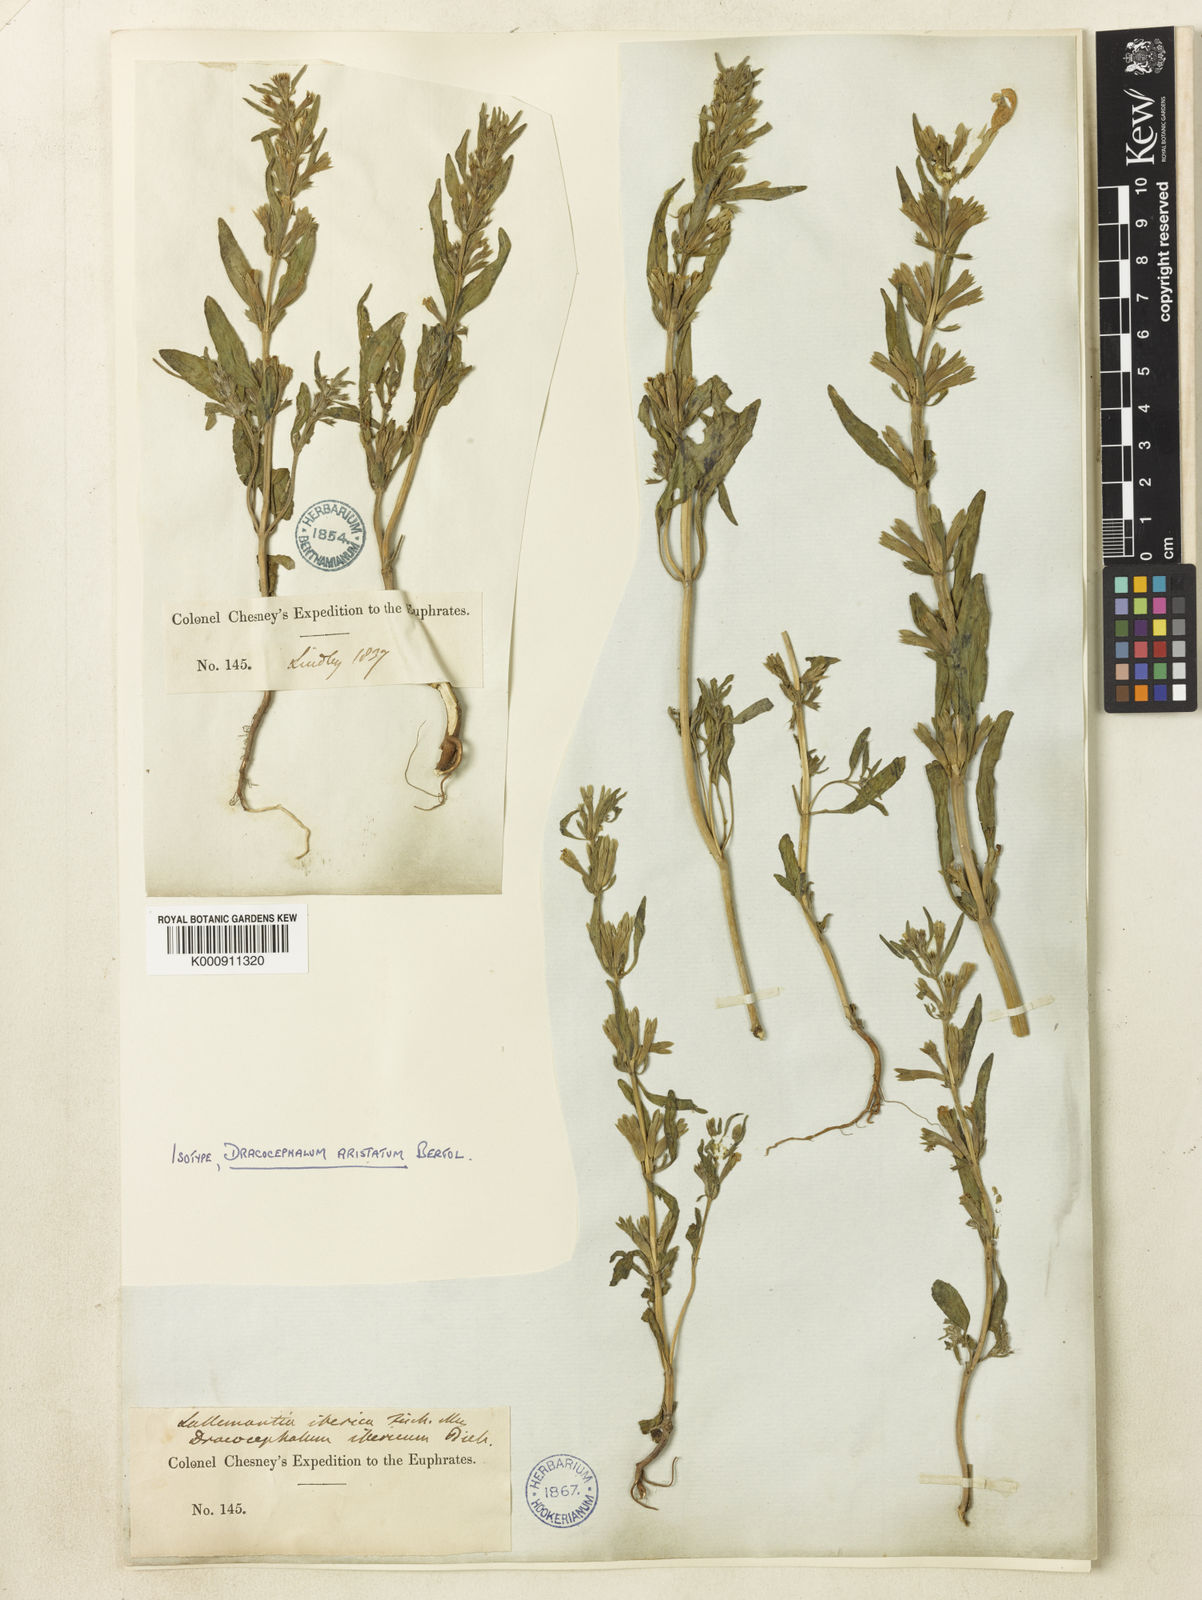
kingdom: Plantae
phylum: Tracheophyta
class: Magnoliopsida
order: Lamiales
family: Lamiaceae
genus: Lallemantia
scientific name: Lallemantia iberica
